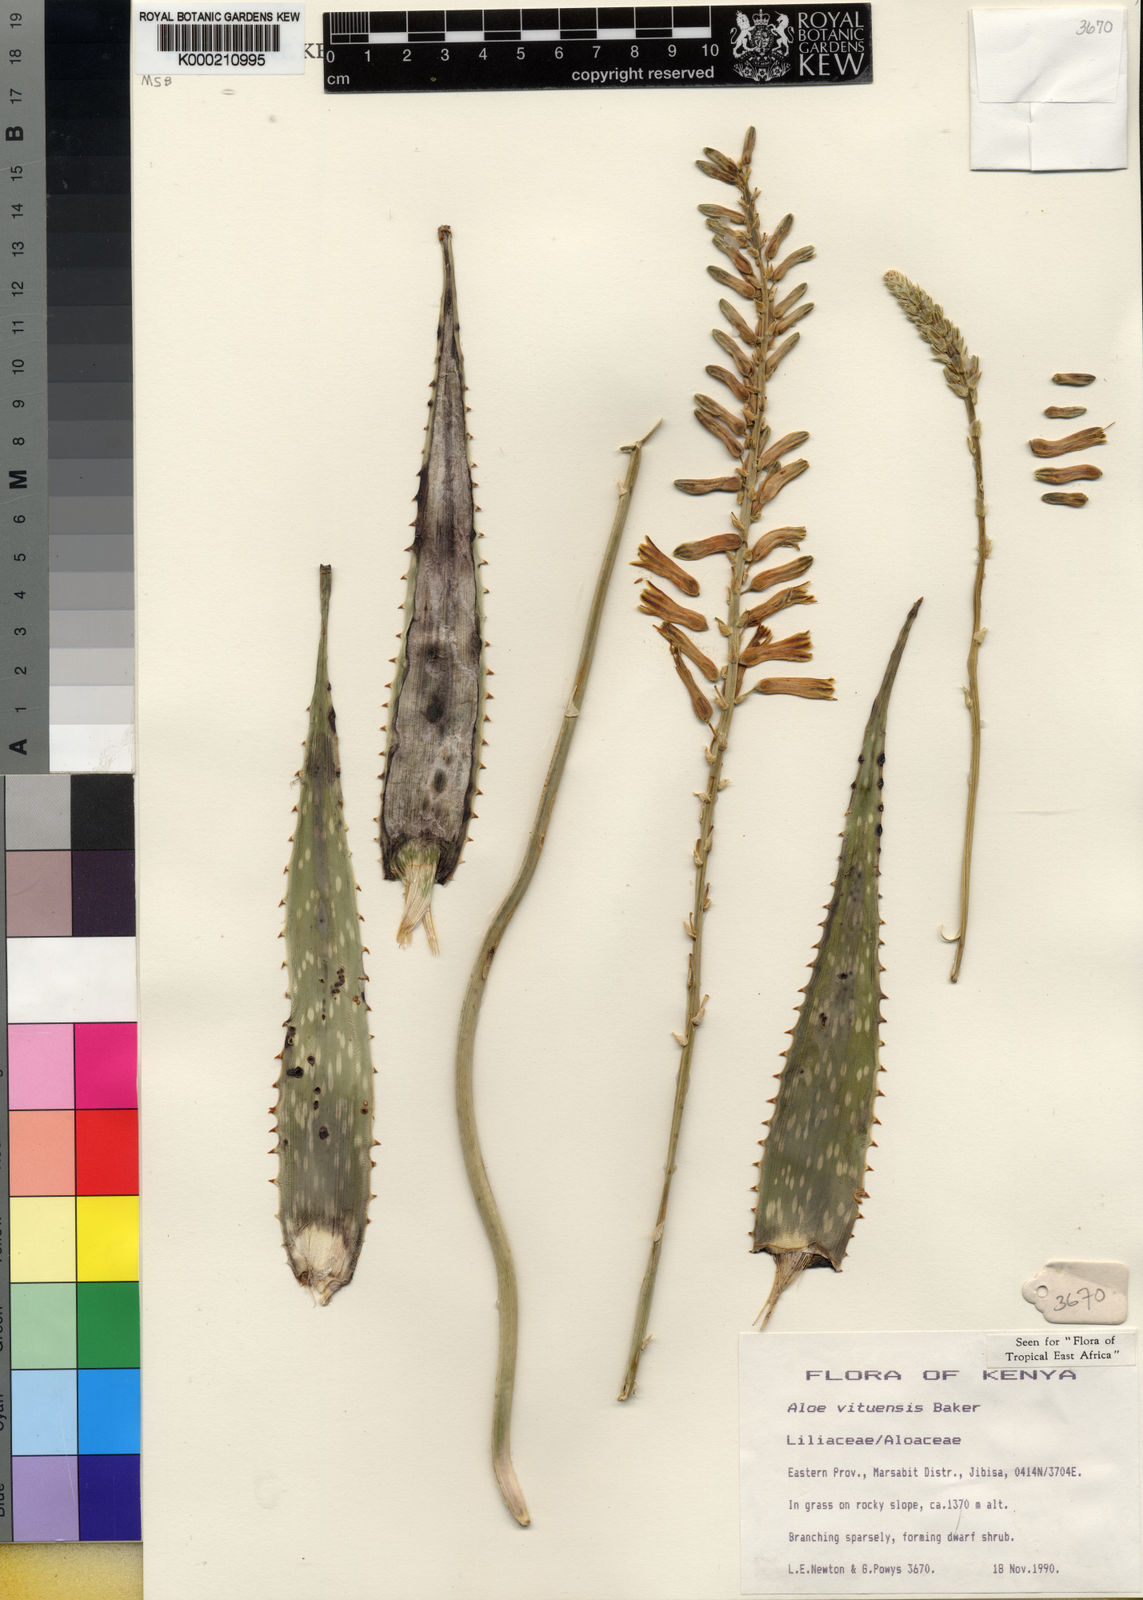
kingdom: Plantae
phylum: Tracheophyta
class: Liliopsida
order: Asparagales
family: Asphodelaceae
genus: Aloe
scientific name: Aloe vituensis
